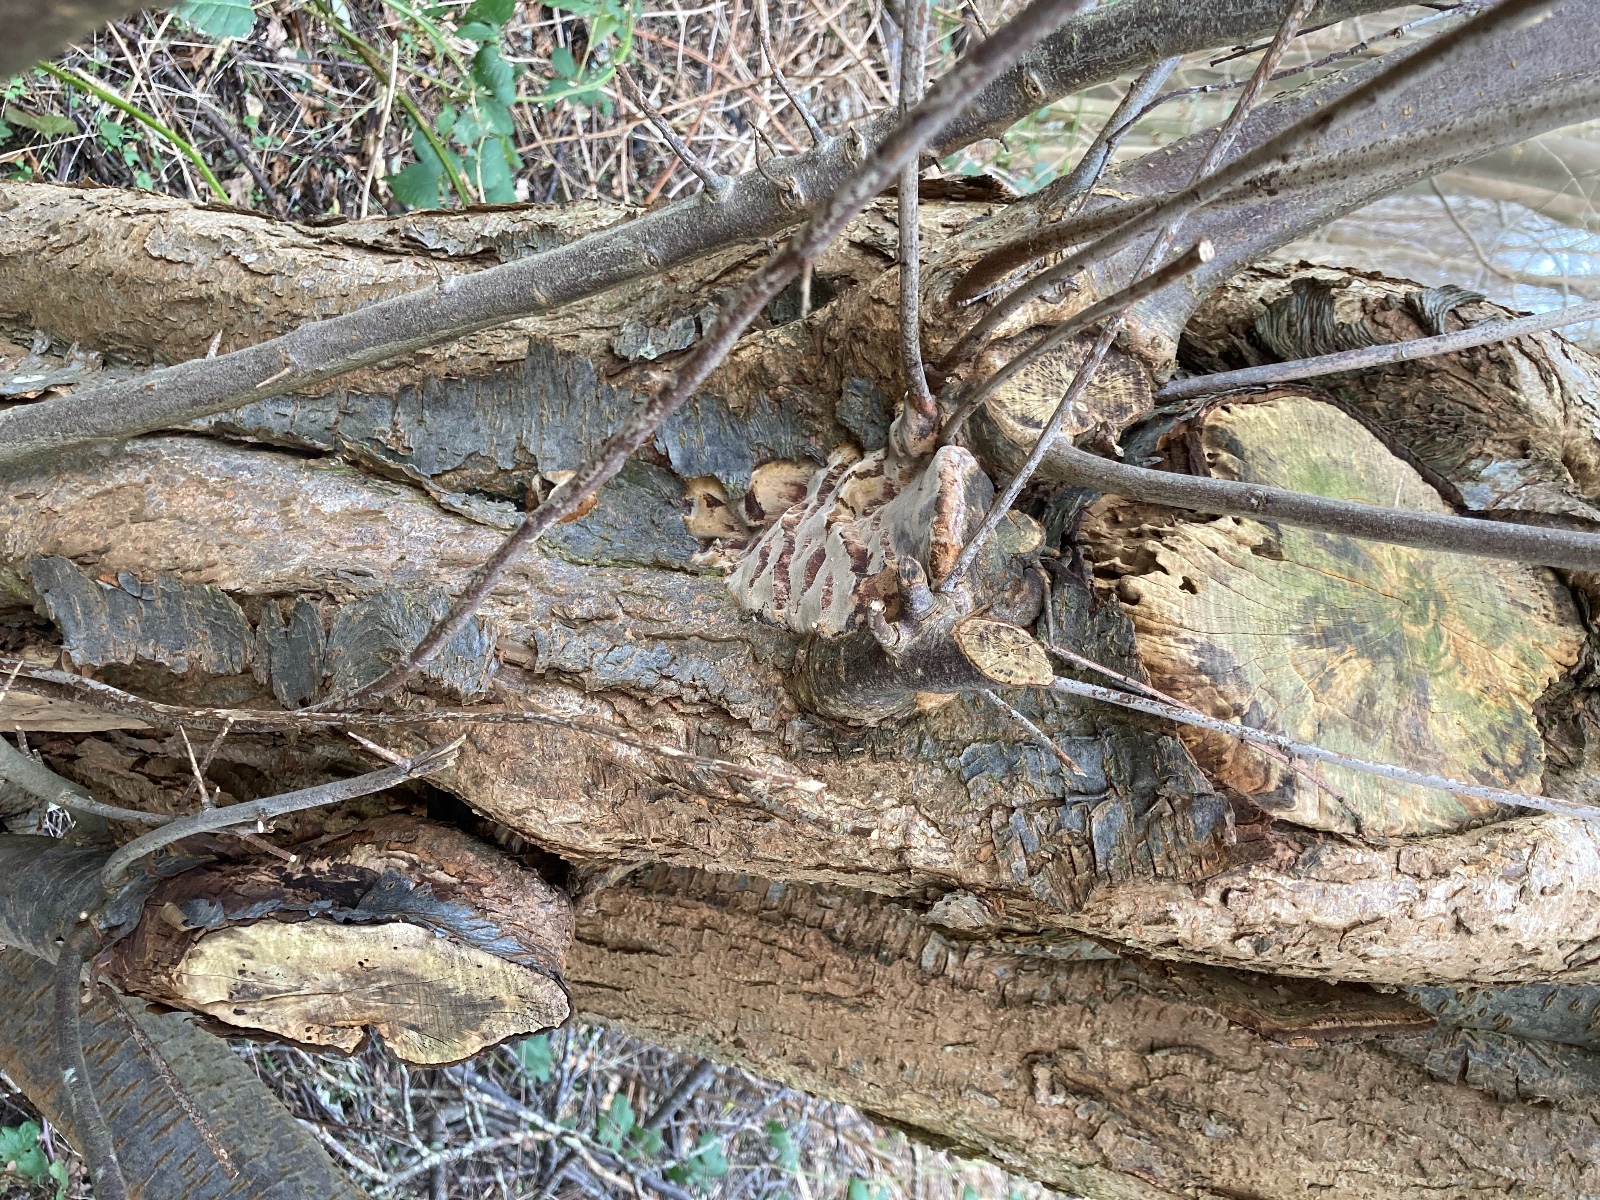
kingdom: Fungi
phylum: Basidiomycota
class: Agaricomycetes
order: Hymenochaetales
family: Hymenochaetaceae
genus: Phellinus
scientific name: Phellinus pomaceus
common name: blomme-ildporesvamp
